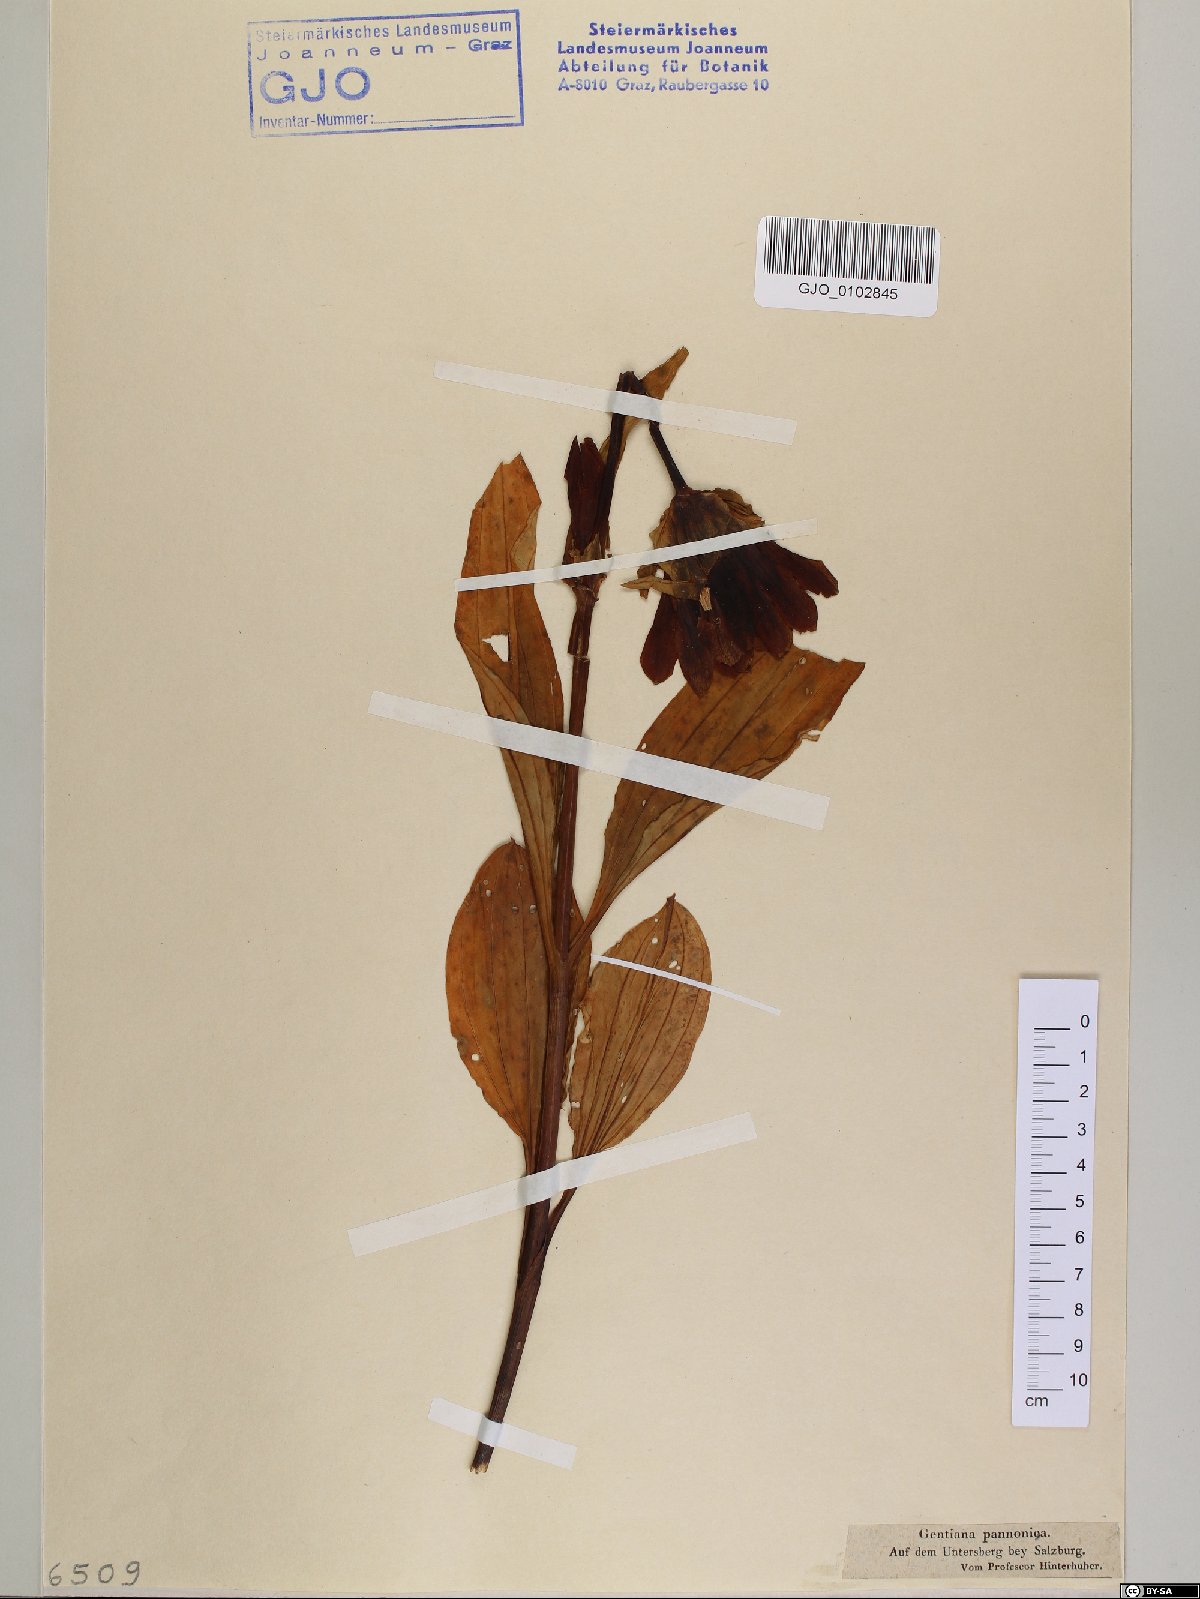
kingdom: Plantae
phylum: Tracheophyta
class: Magnoliopsida
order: Gentianales
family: Gentianaceae
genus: Gentiana
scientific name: Gentiana pannonica
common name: Hungarian gentian
